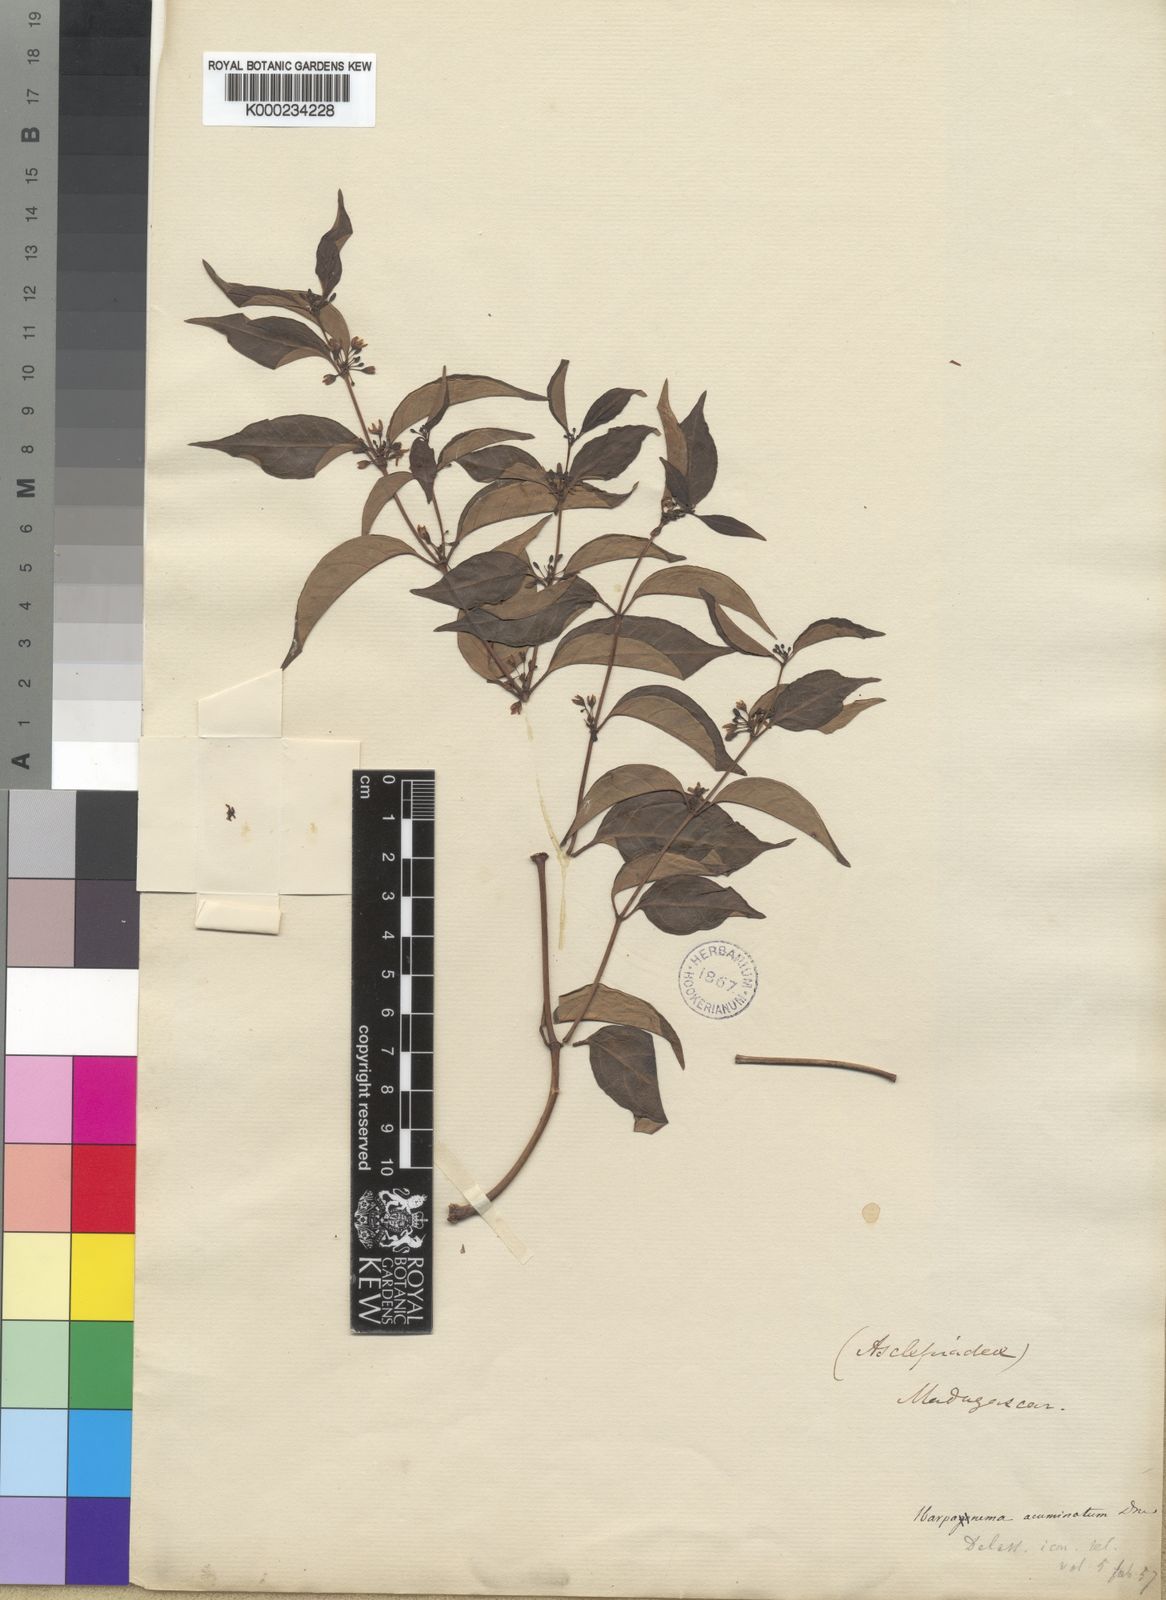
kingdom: Plantae
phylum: Tracheophyta
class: Magnoliopsida
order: Gentianales
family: Apocynaceae
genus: Camptocarpus
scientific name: Camptocarpus acuminatus
